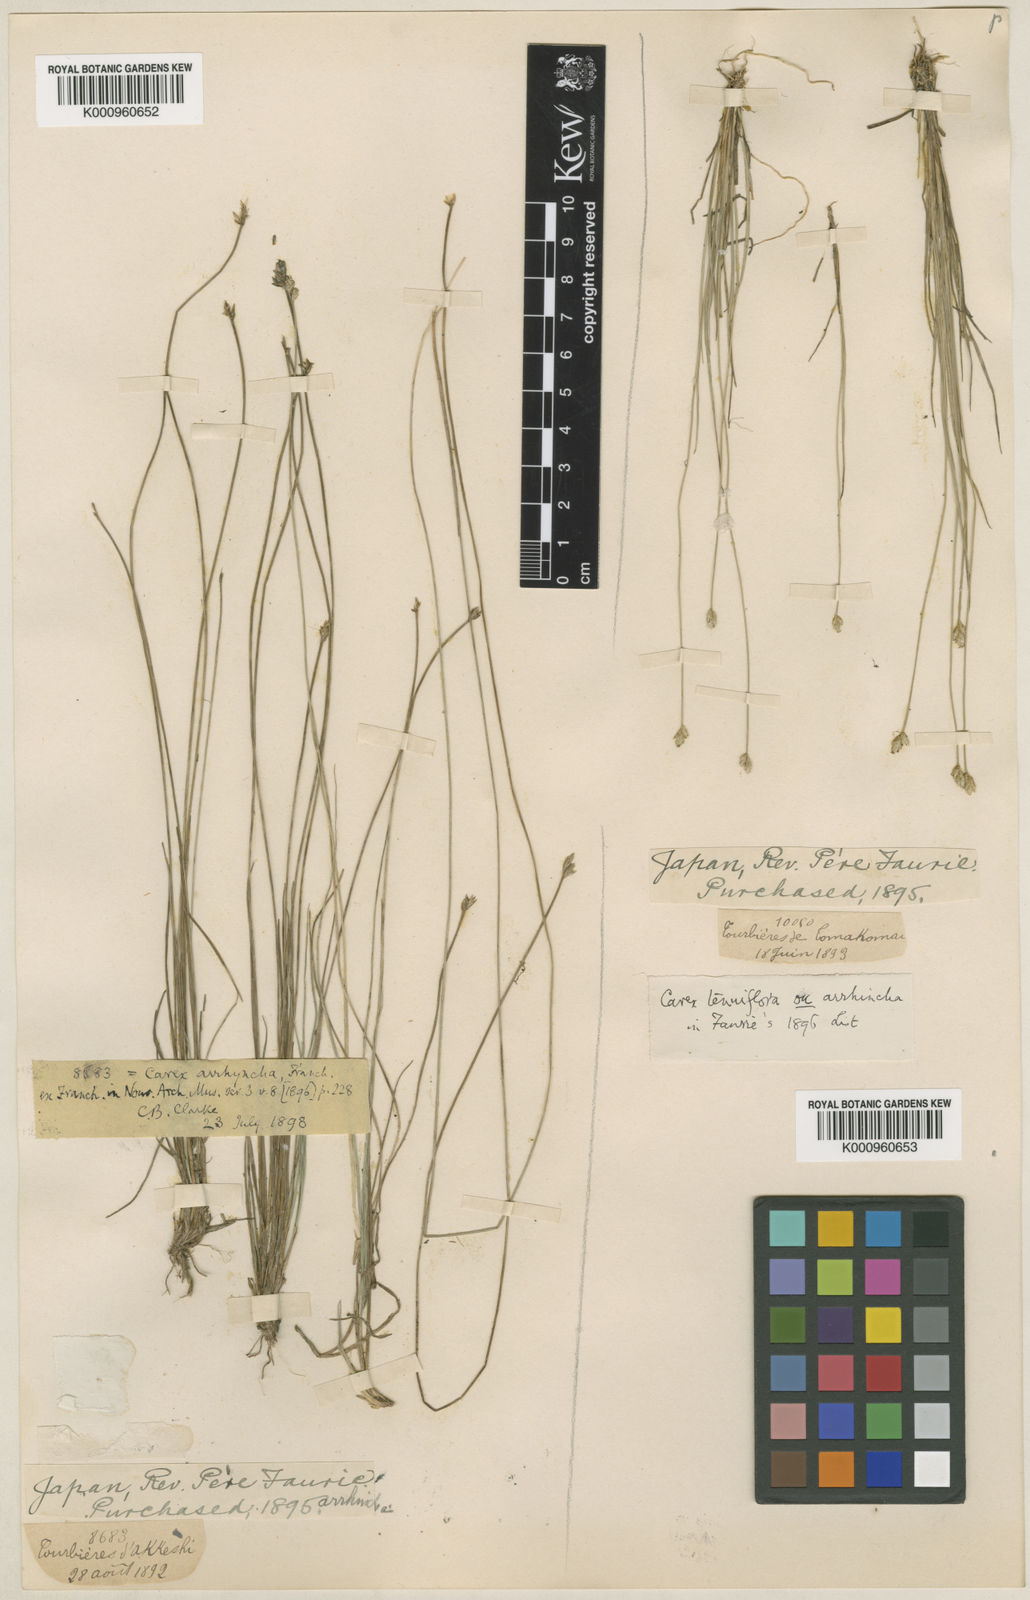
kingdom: Plantae
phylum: Tracheophyta
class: Liliopsida
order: Poales
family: Cyperaceae
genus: Carex
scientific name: Carex tenuiflora
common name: Sparse-flowered sedge
